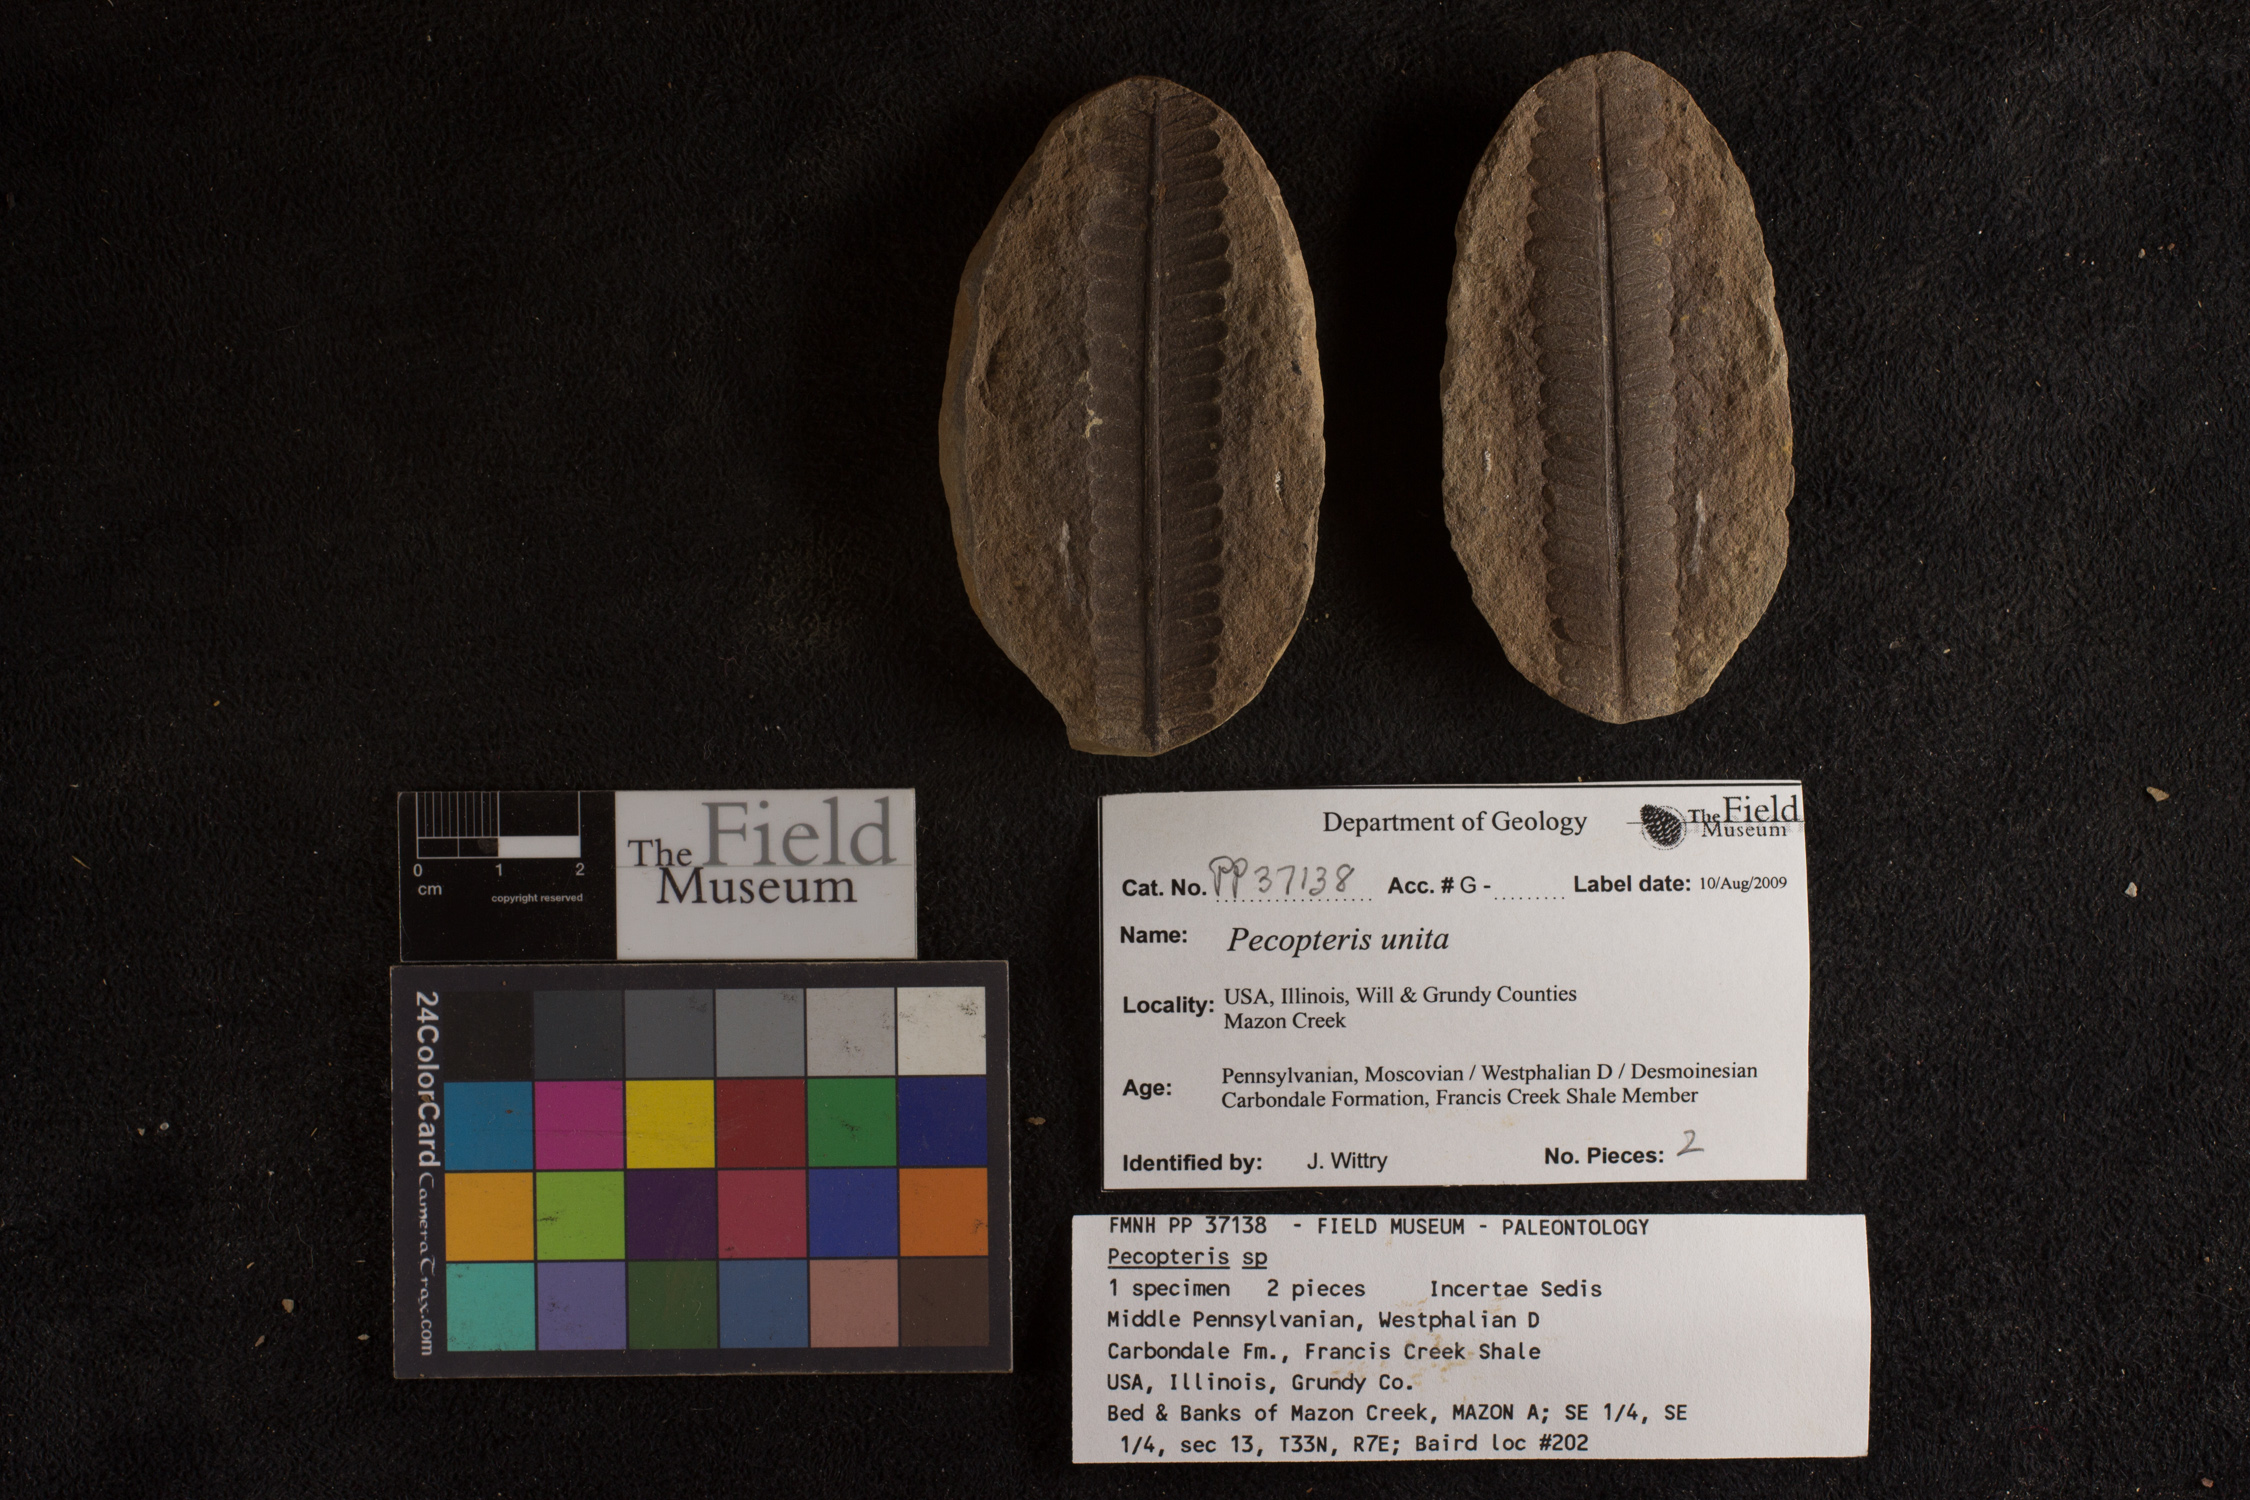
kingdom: Plantae
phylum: Tracheophyta
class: Polypodiopsida
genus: Diplazites
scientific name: Diplazites
